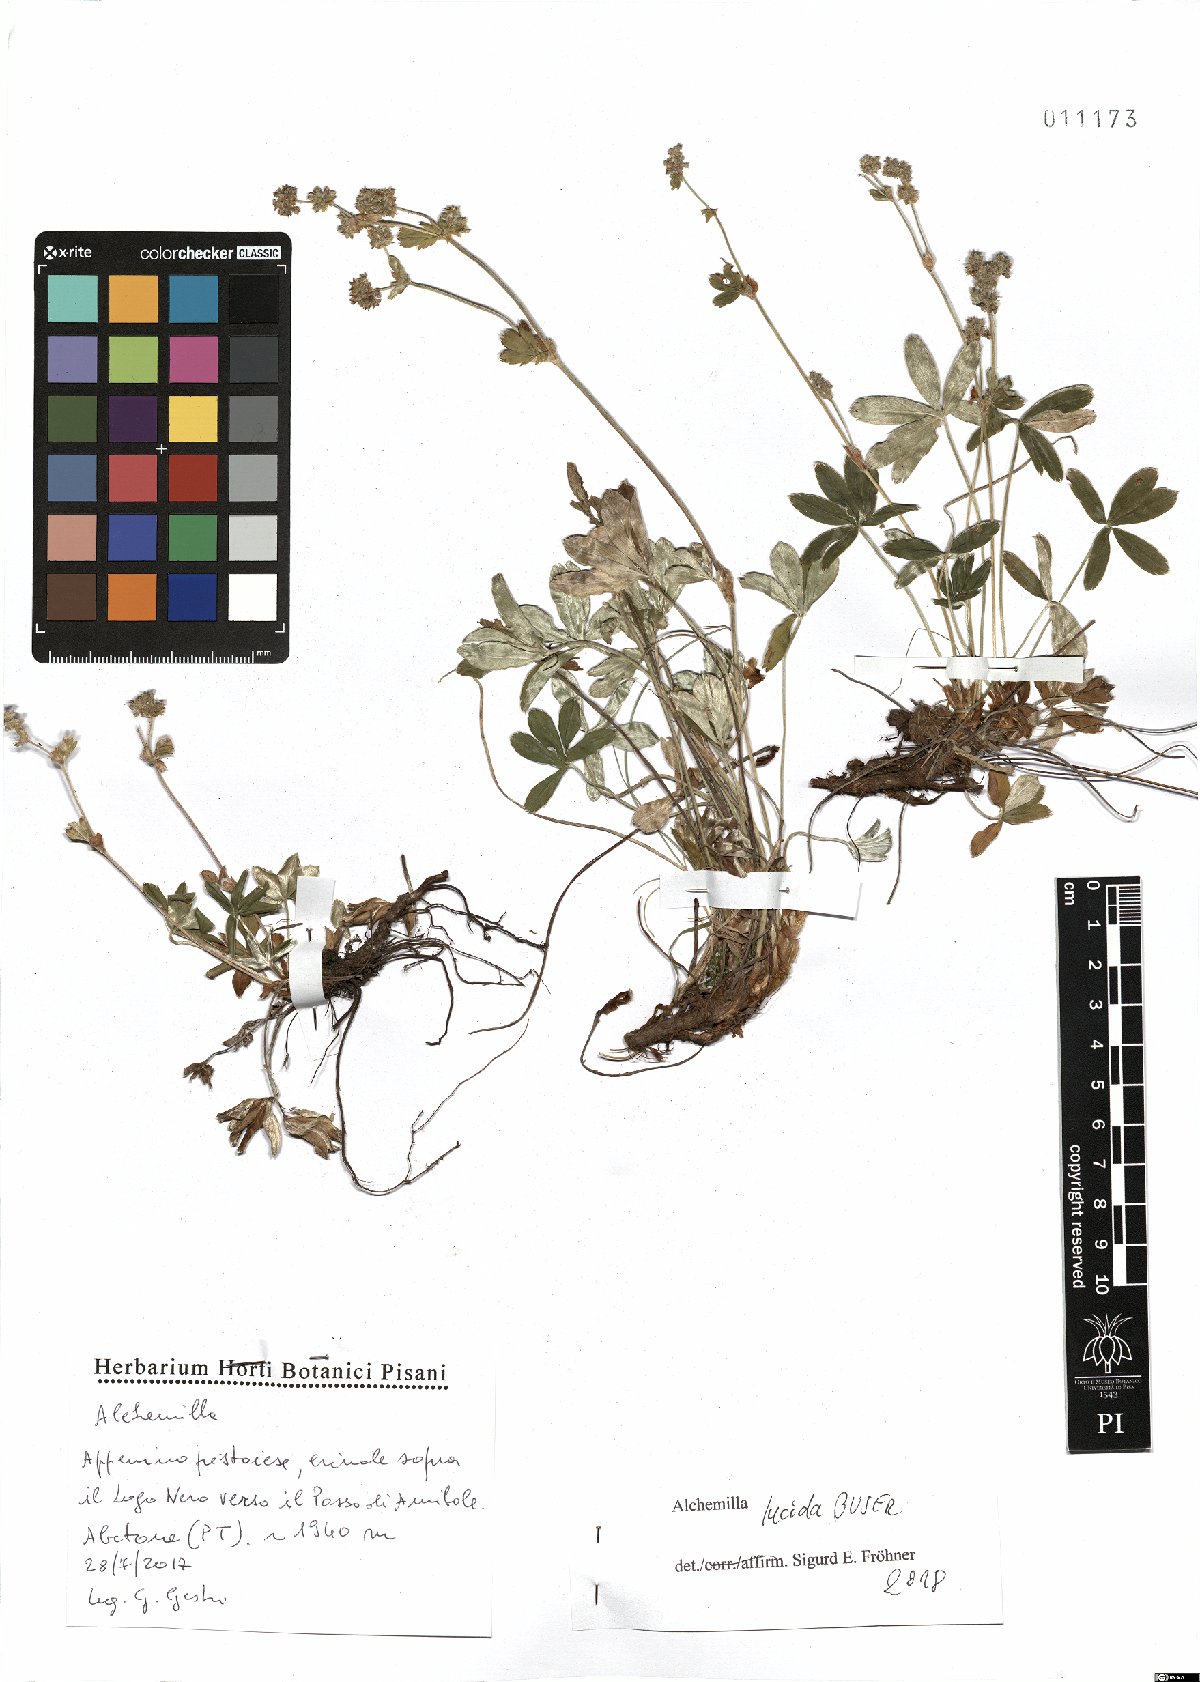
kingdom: Plantae
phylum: Tracheophyta
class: Magnoliopsida
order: Rosales
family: Rosaceae
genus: Alchemilla
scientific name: Alchemilla lucida
